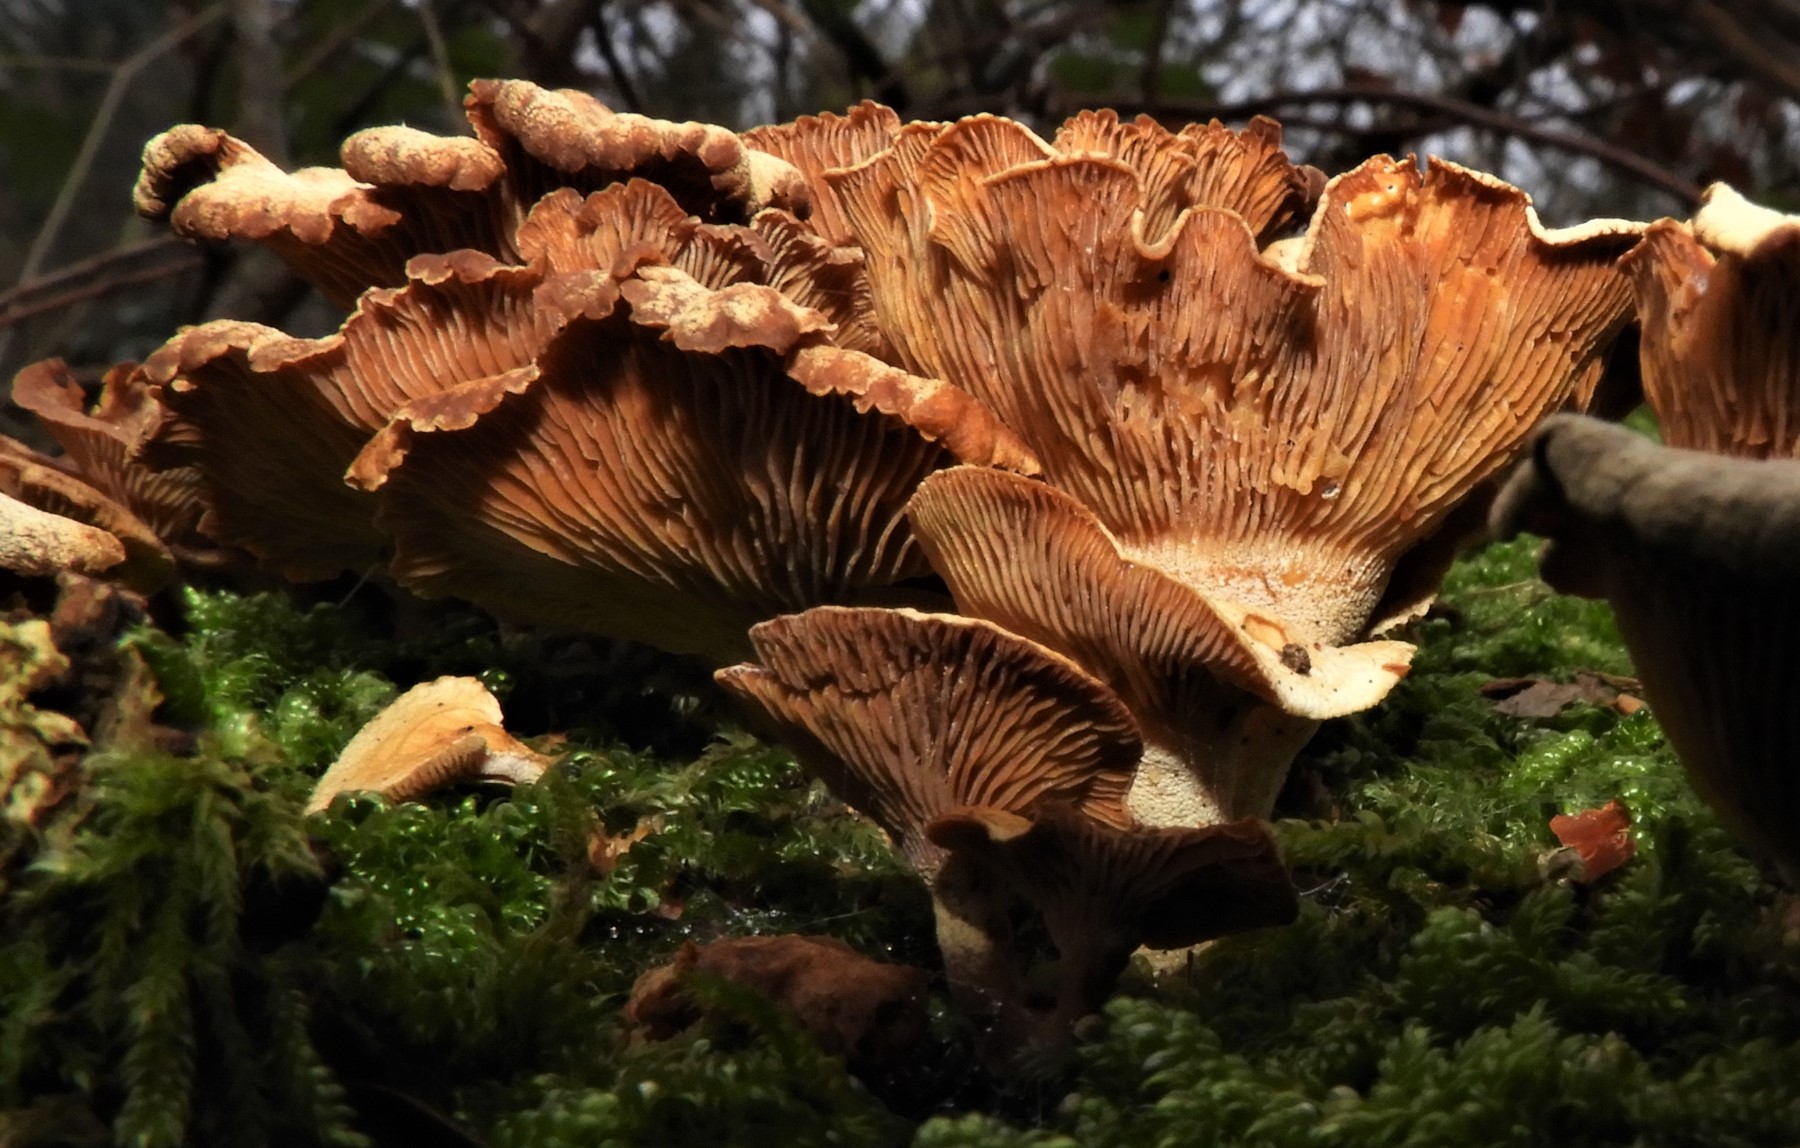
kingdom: Fungi
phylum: Basidiomycota
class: Agaricomycetes
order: Agaricales
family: Mycenaceae
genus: Panellus
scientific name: Panellus stipticus
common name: kliddet epaulethat
